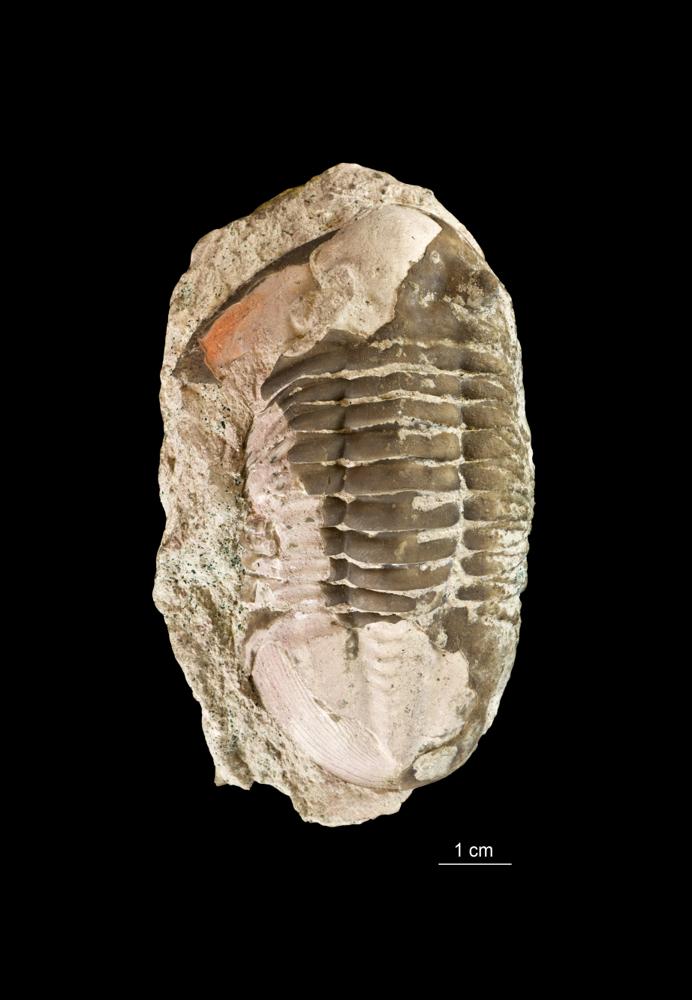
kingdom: Animalia
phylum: Arthropoda
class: Trilobita
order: Asaphida
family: Asaphidae
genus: Asaphus
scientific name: Asaphus lepidurus
